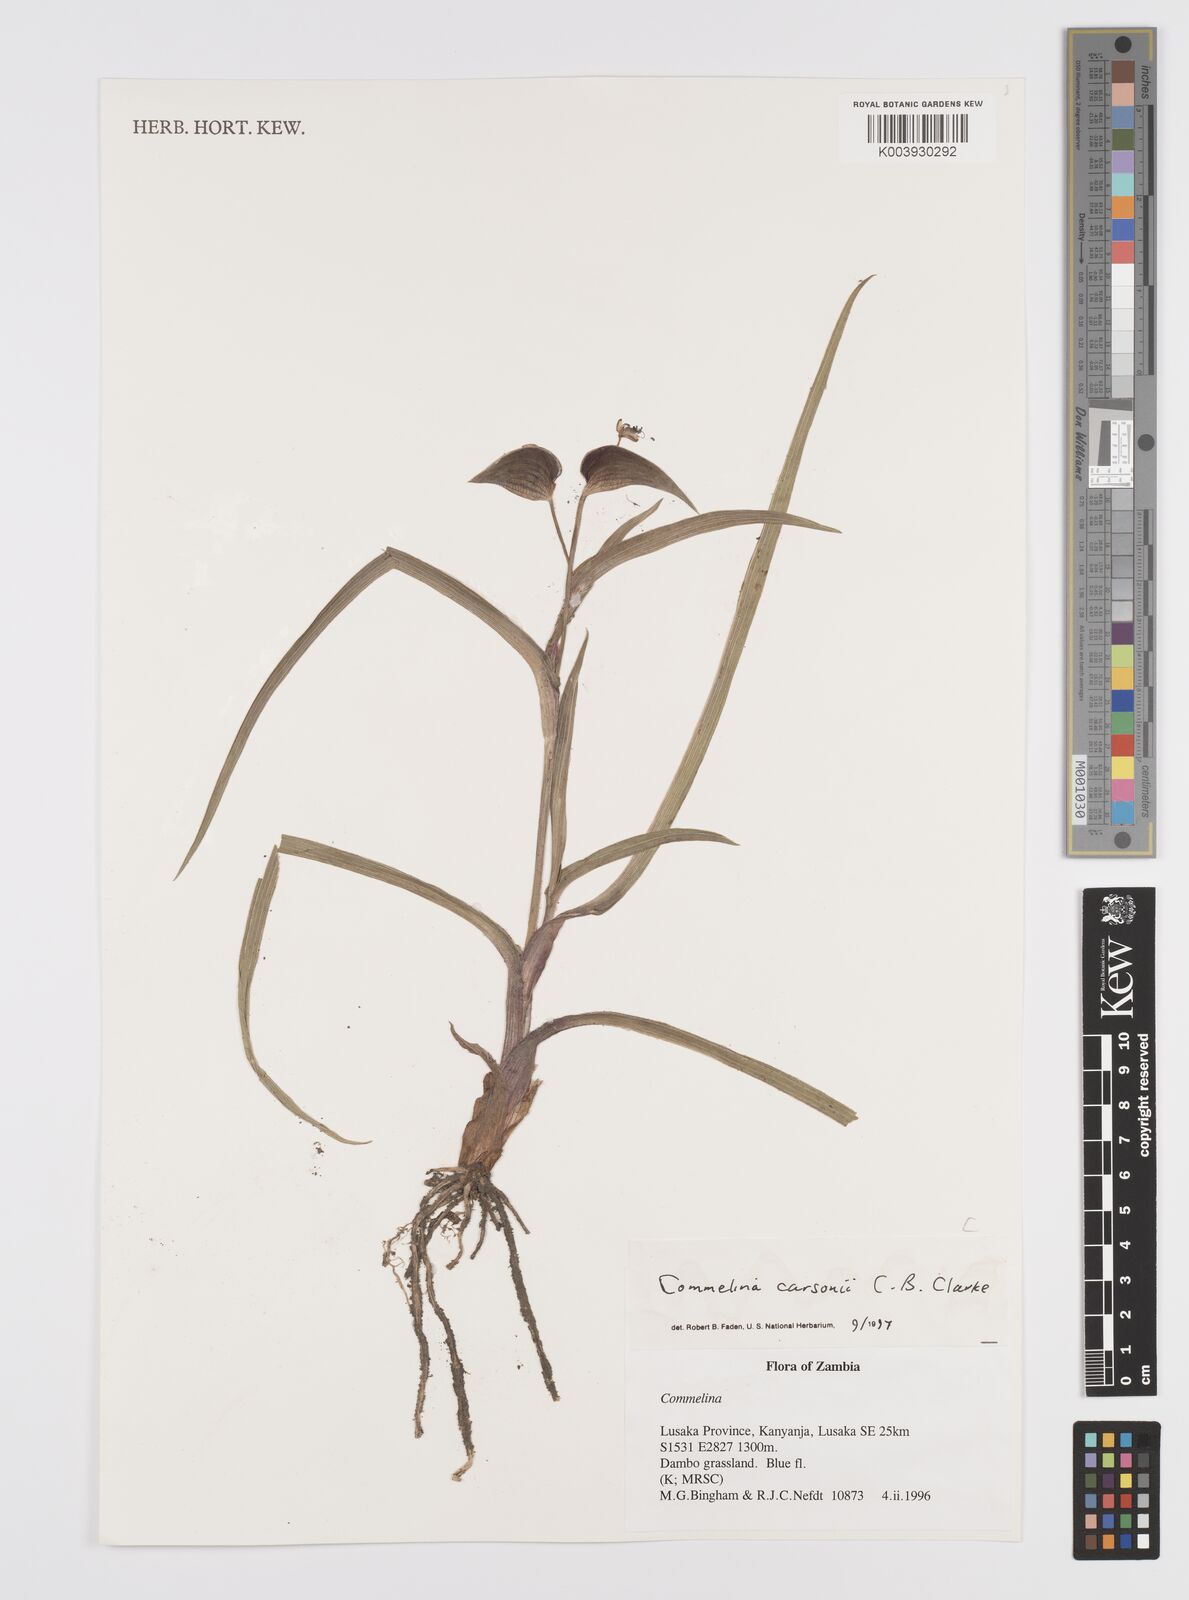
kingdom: Plantae
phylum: Tracheophyta
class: Liliopsida
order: Commelinales
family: Commelinaceae
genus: Commelina
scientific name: Commelina schweinfurthii
